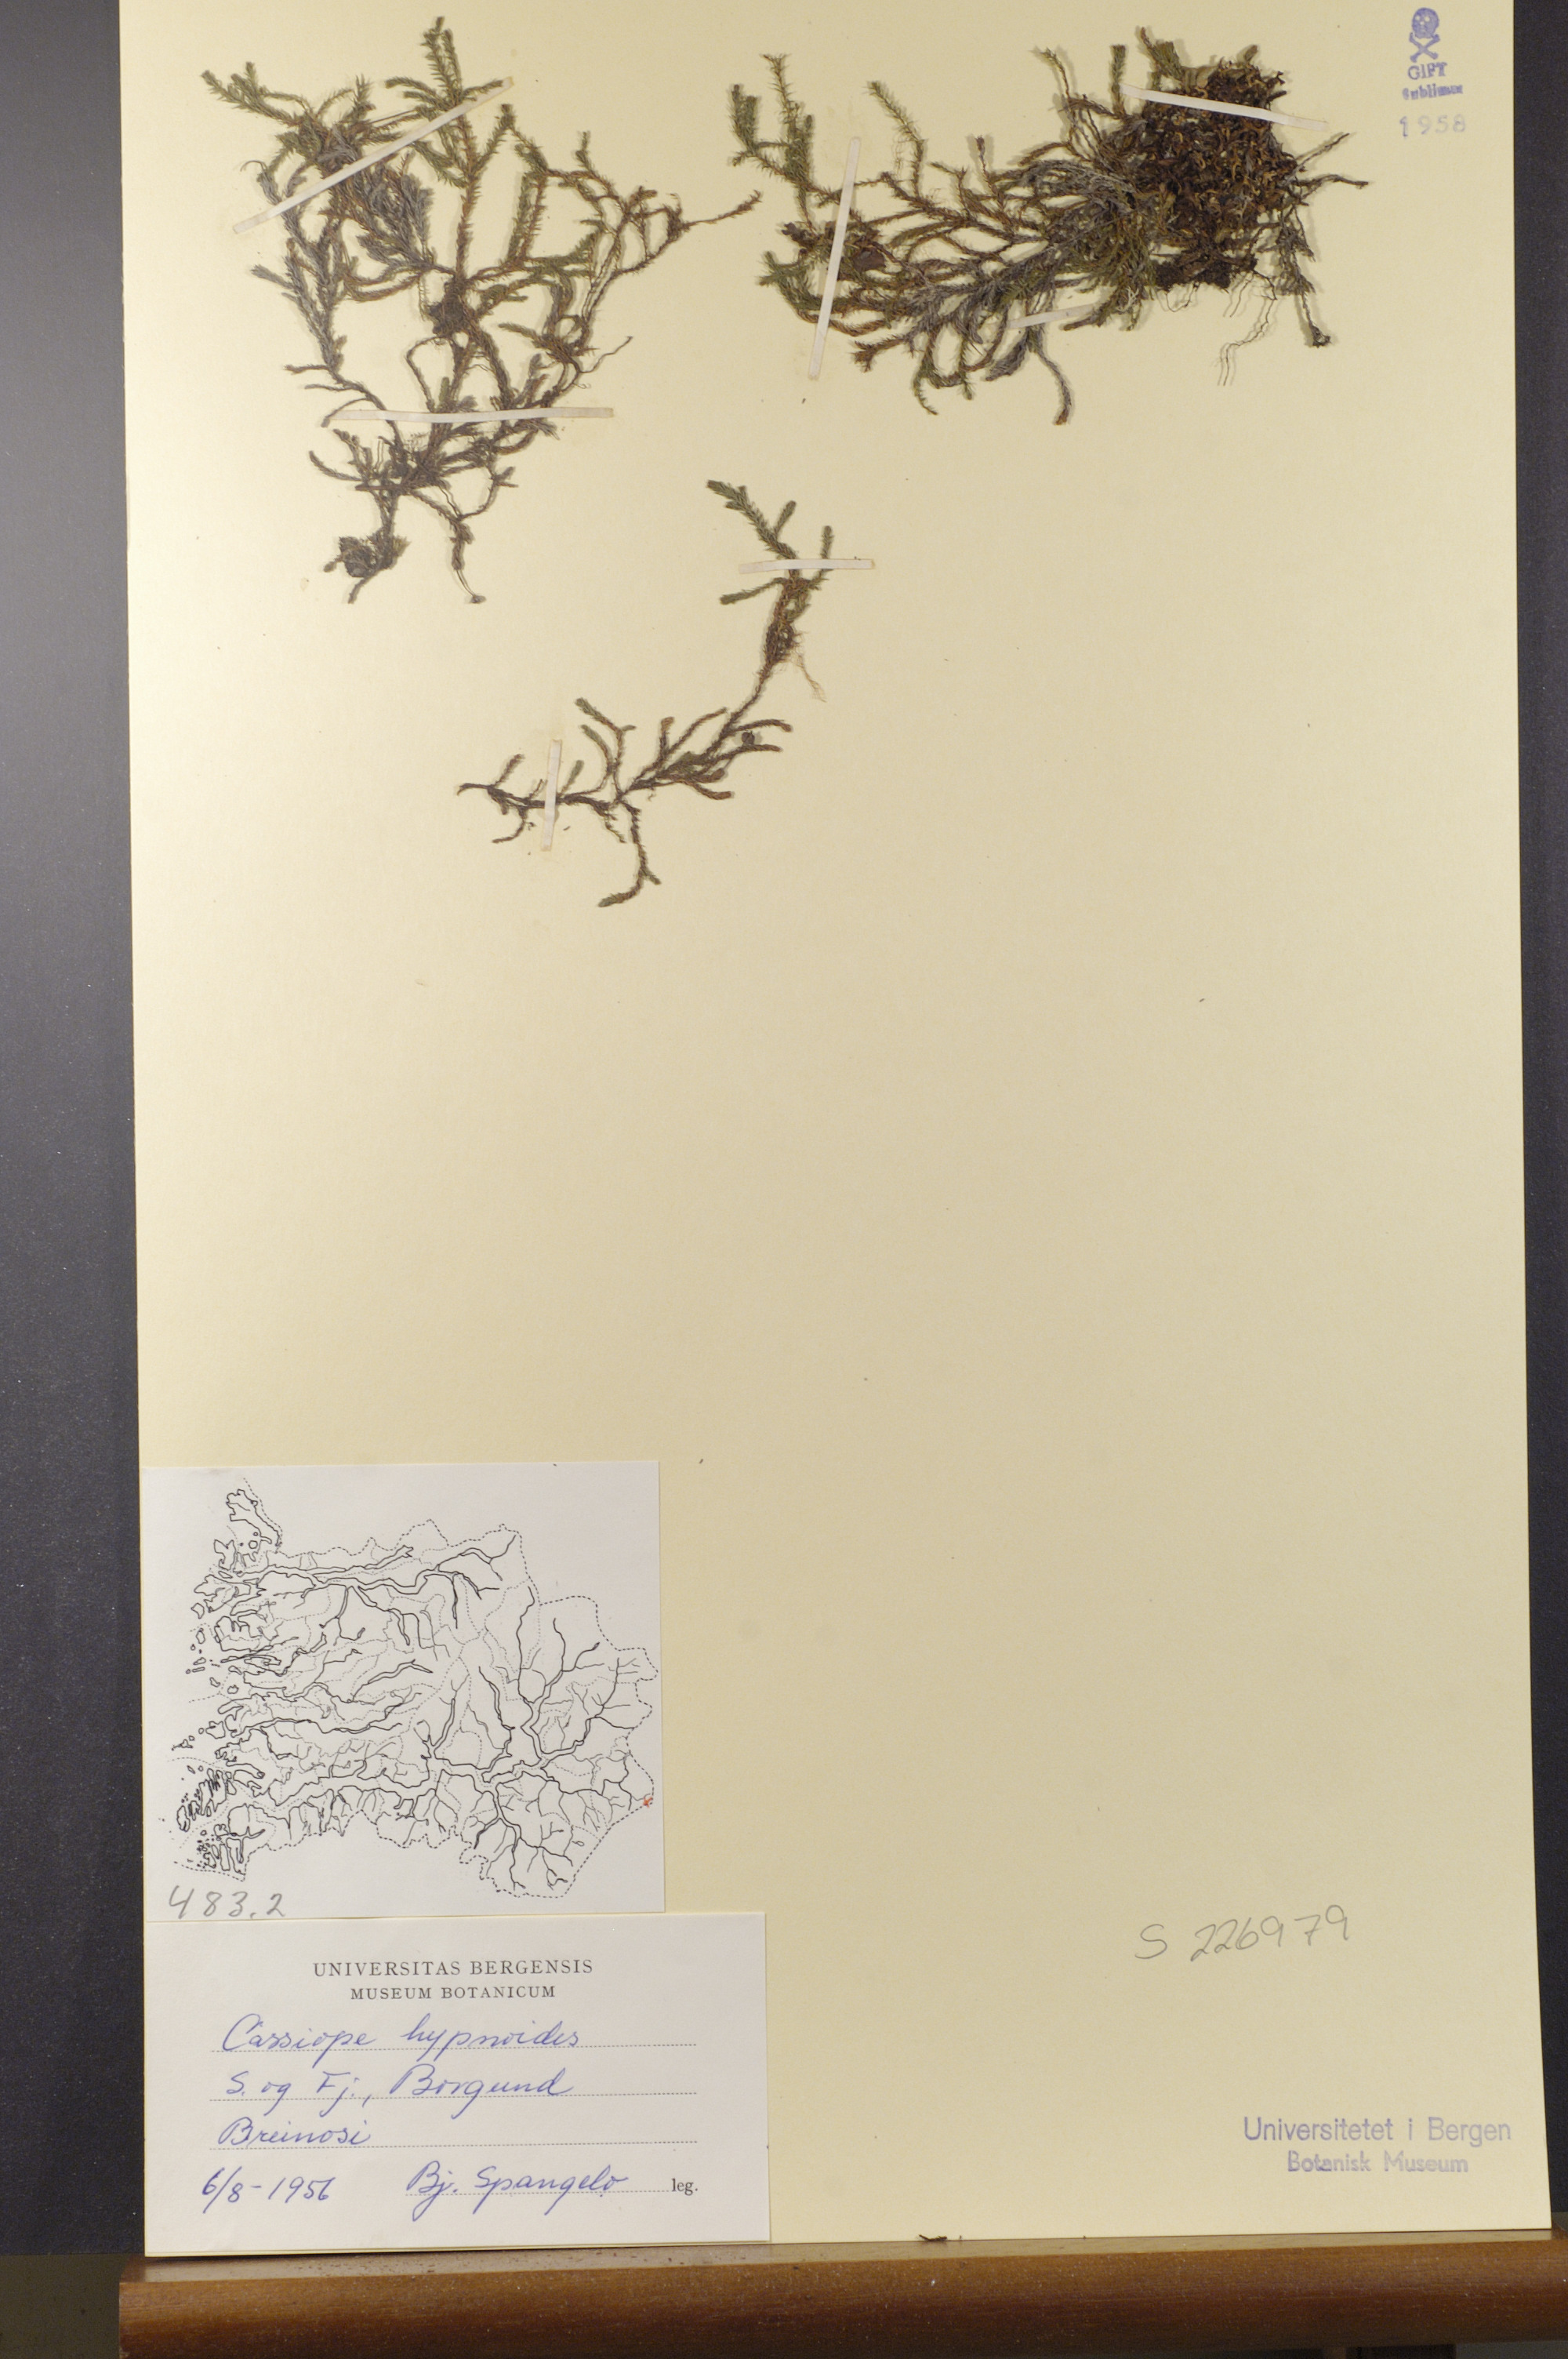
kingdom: Plantae
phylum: Tracheophyta
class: Magnoliopsida
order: Ericales
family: Ericaceae
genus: Harrimanella
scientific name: Harrimanella hypnoides
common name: Moss bell heather
